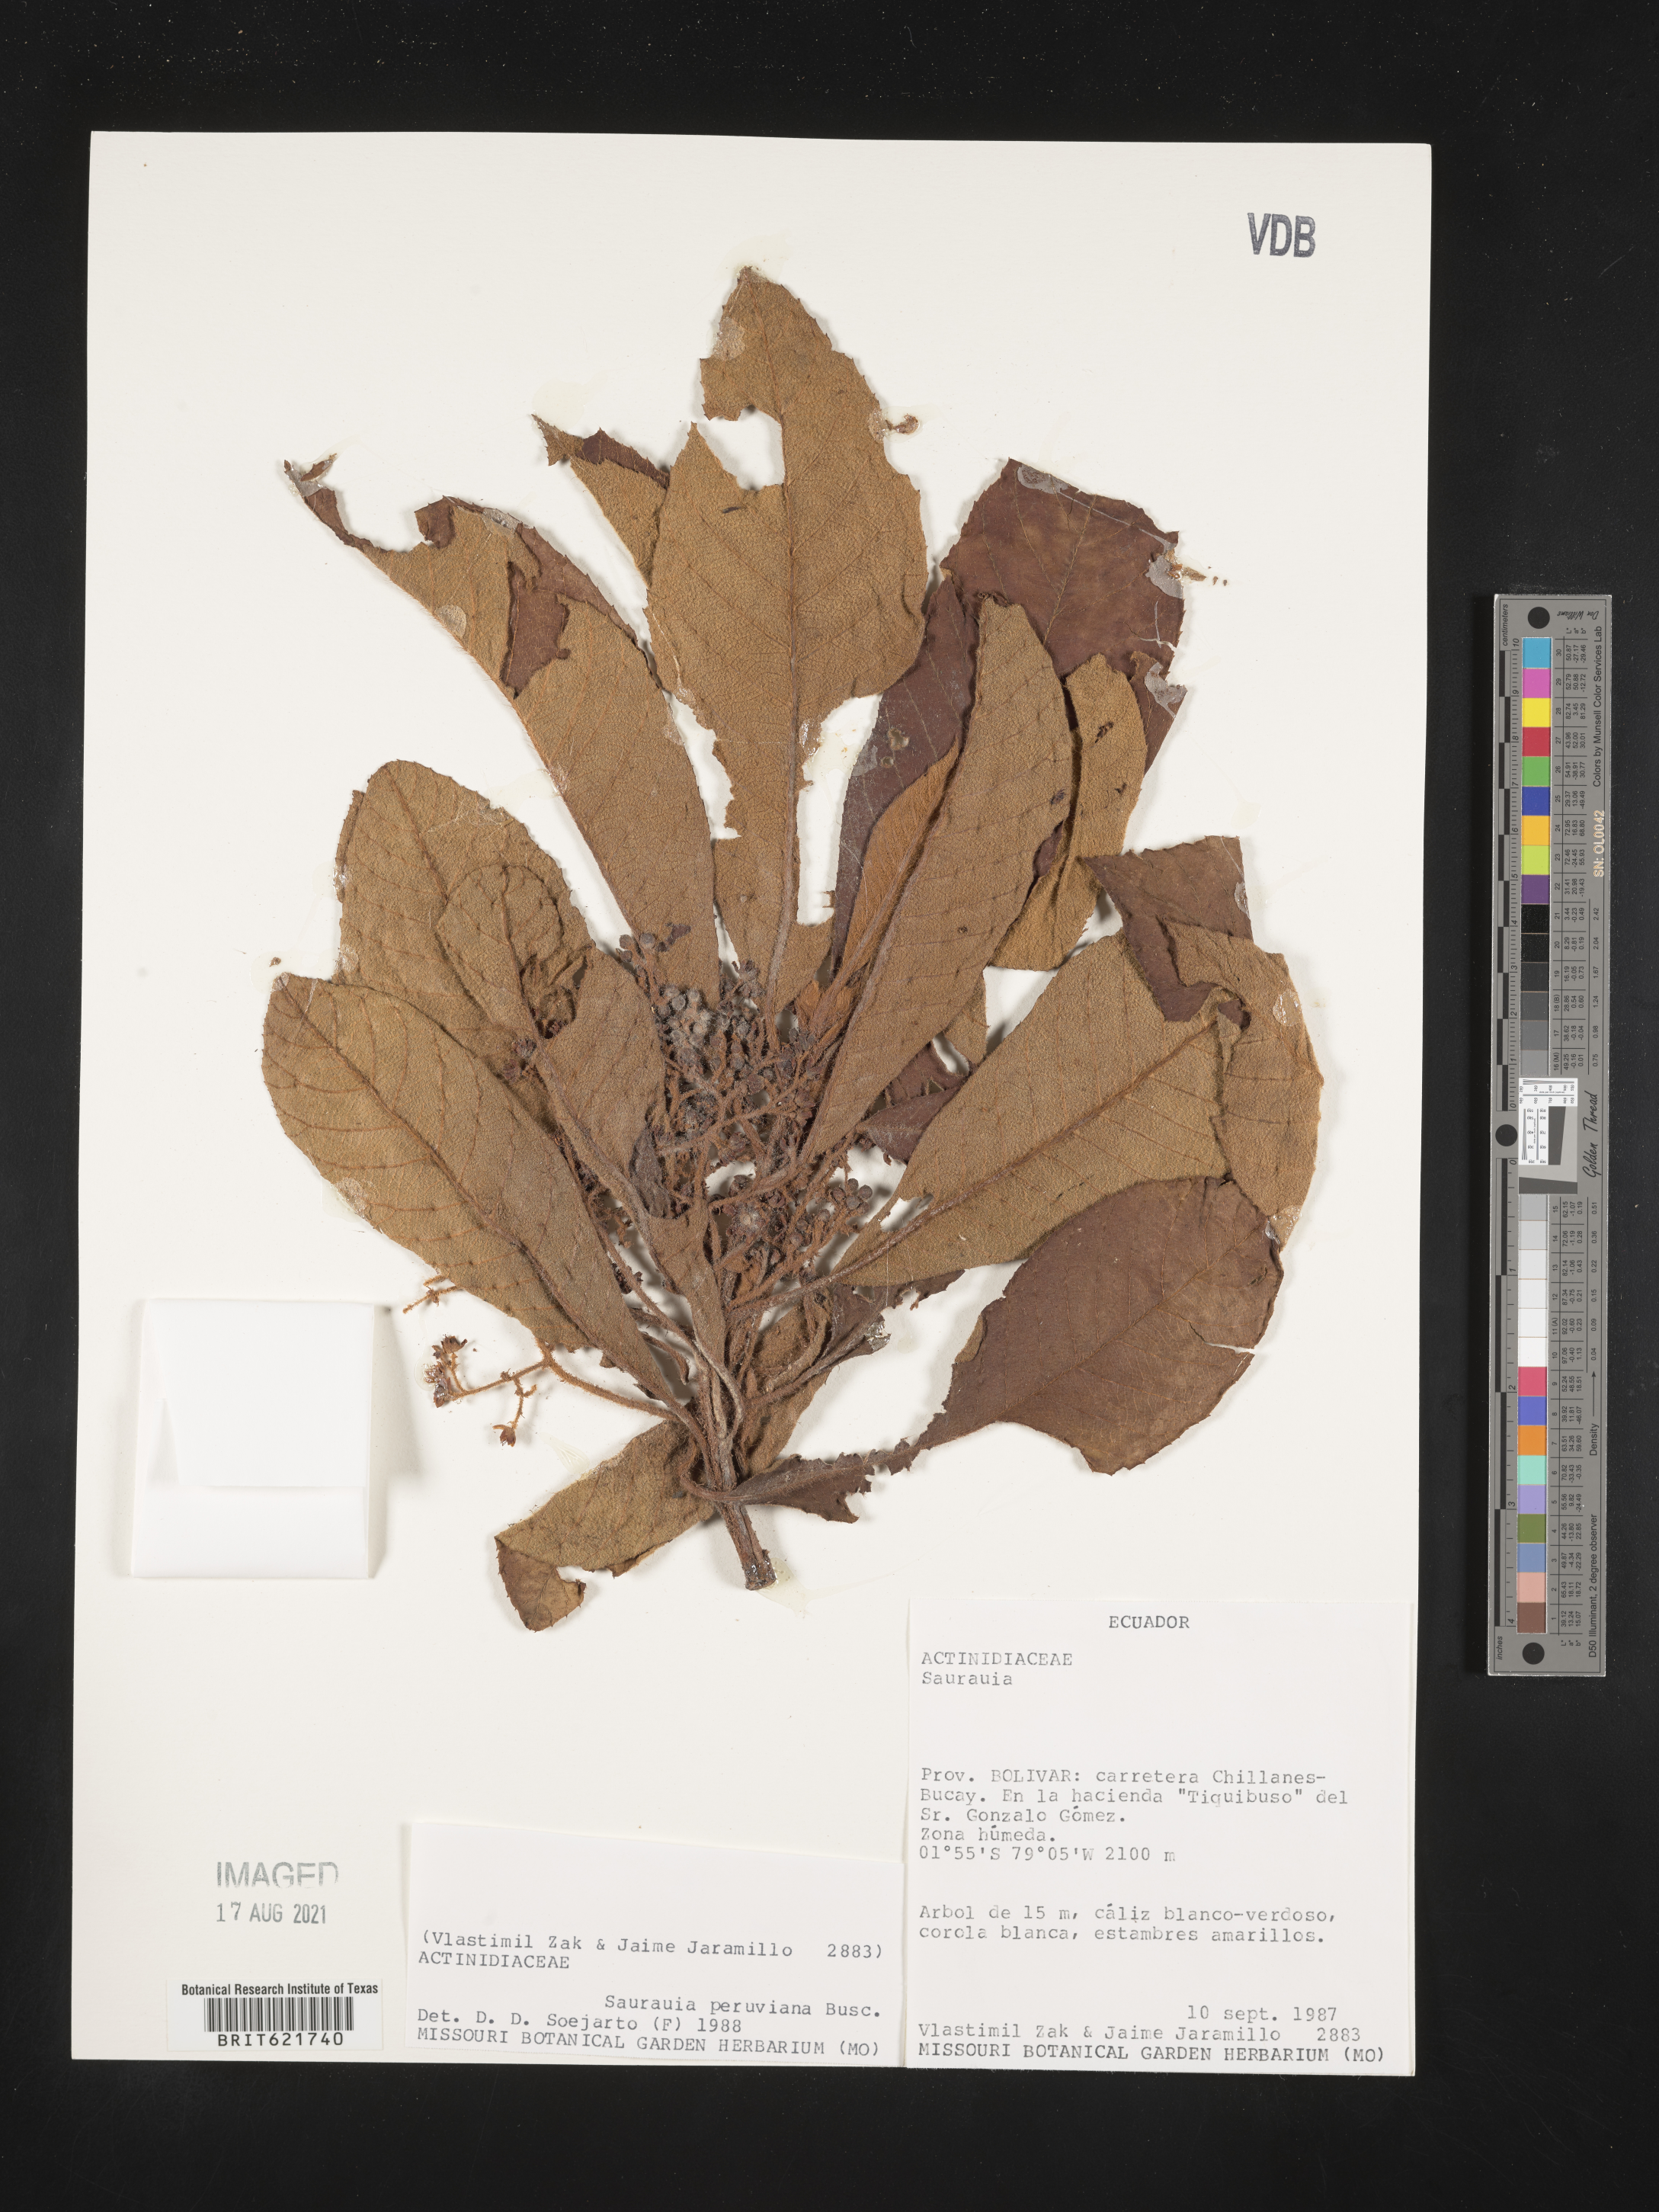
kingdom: Plantae
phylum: Tracheophyta
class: Magnoliopsida
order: Ericales
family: Actinidiaceae
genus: Saurauia
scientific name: Saurauia peruviana
